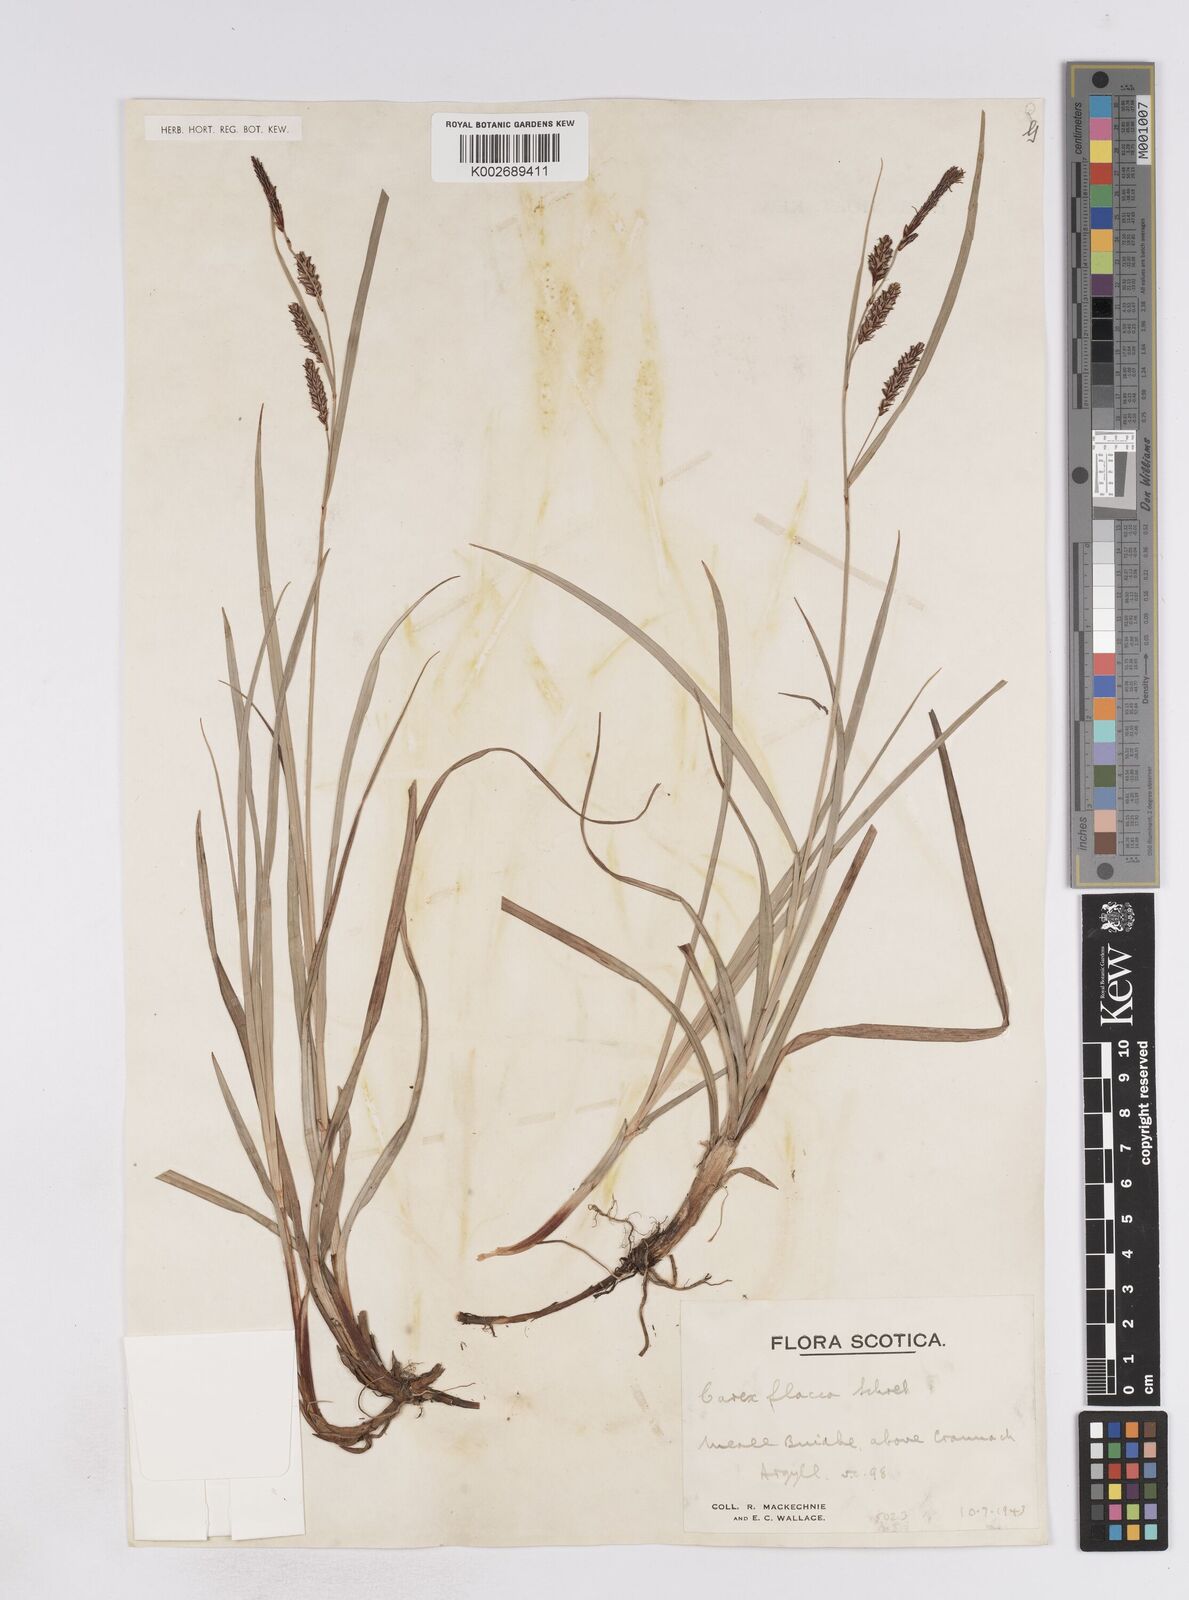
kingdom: Plantae
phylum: Tracheophyta
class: Liliopsida
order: Poales
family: Cyperaceae
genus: Carex
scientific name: Carex flacca
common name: Glaucous sedge
